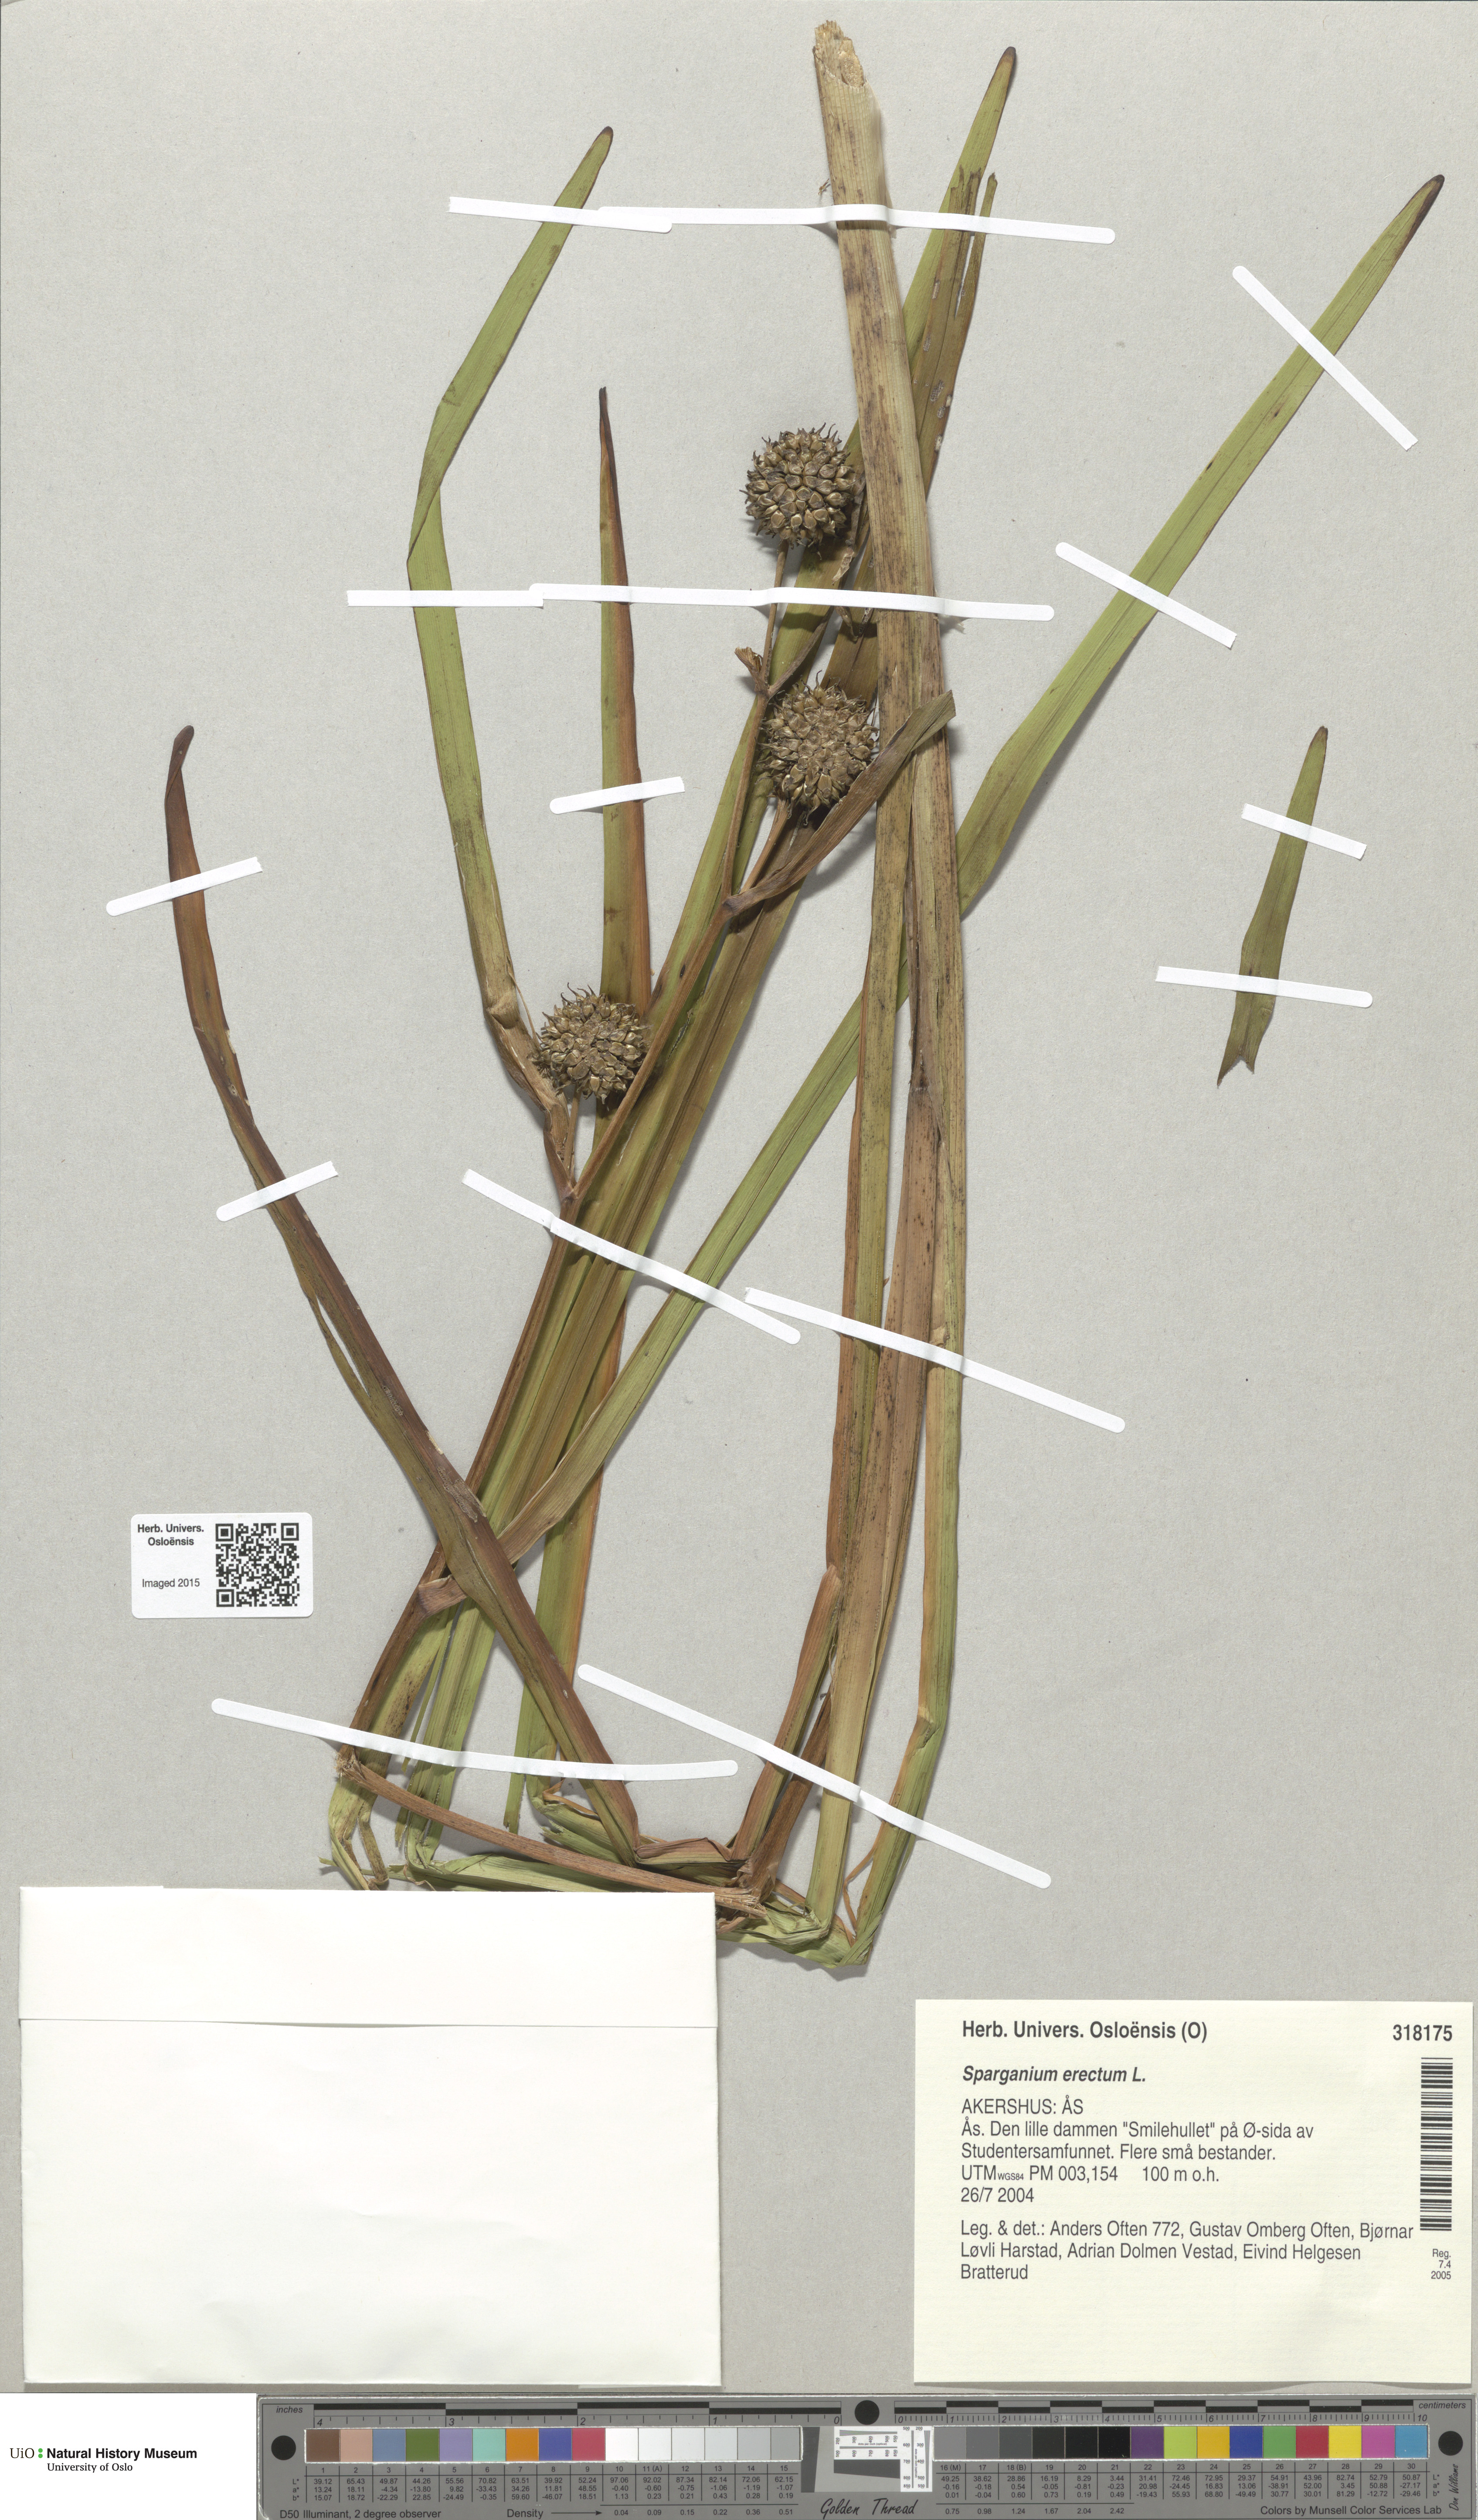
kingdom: Plantae
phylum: Tracheophyta
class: Liliopsida
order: Poales
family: Typhaceae
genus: Sparganium
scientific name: Sparganium erectum
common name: Branched bur-reed
